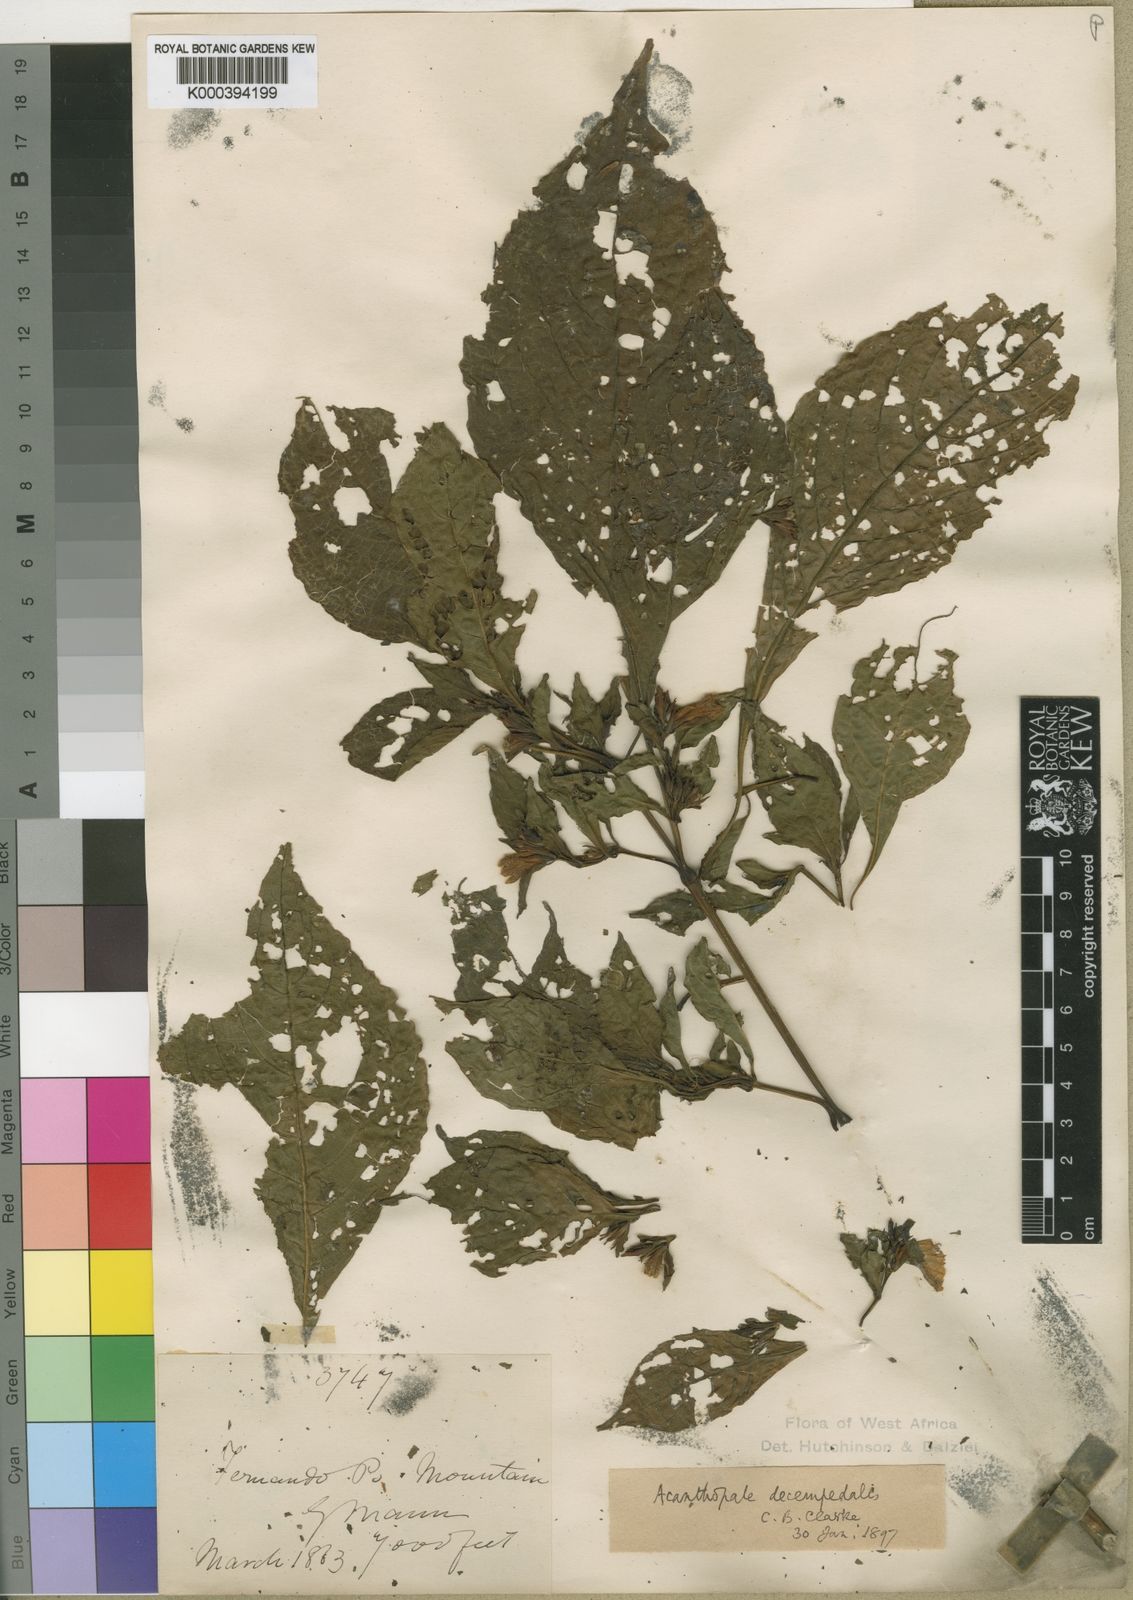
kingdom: Plantae
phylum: Tracheophyta
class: Magnoliopsida
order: Lamiales
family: Acanthaceae
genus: Acanthopale
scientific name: Acanthopale decempedalis
